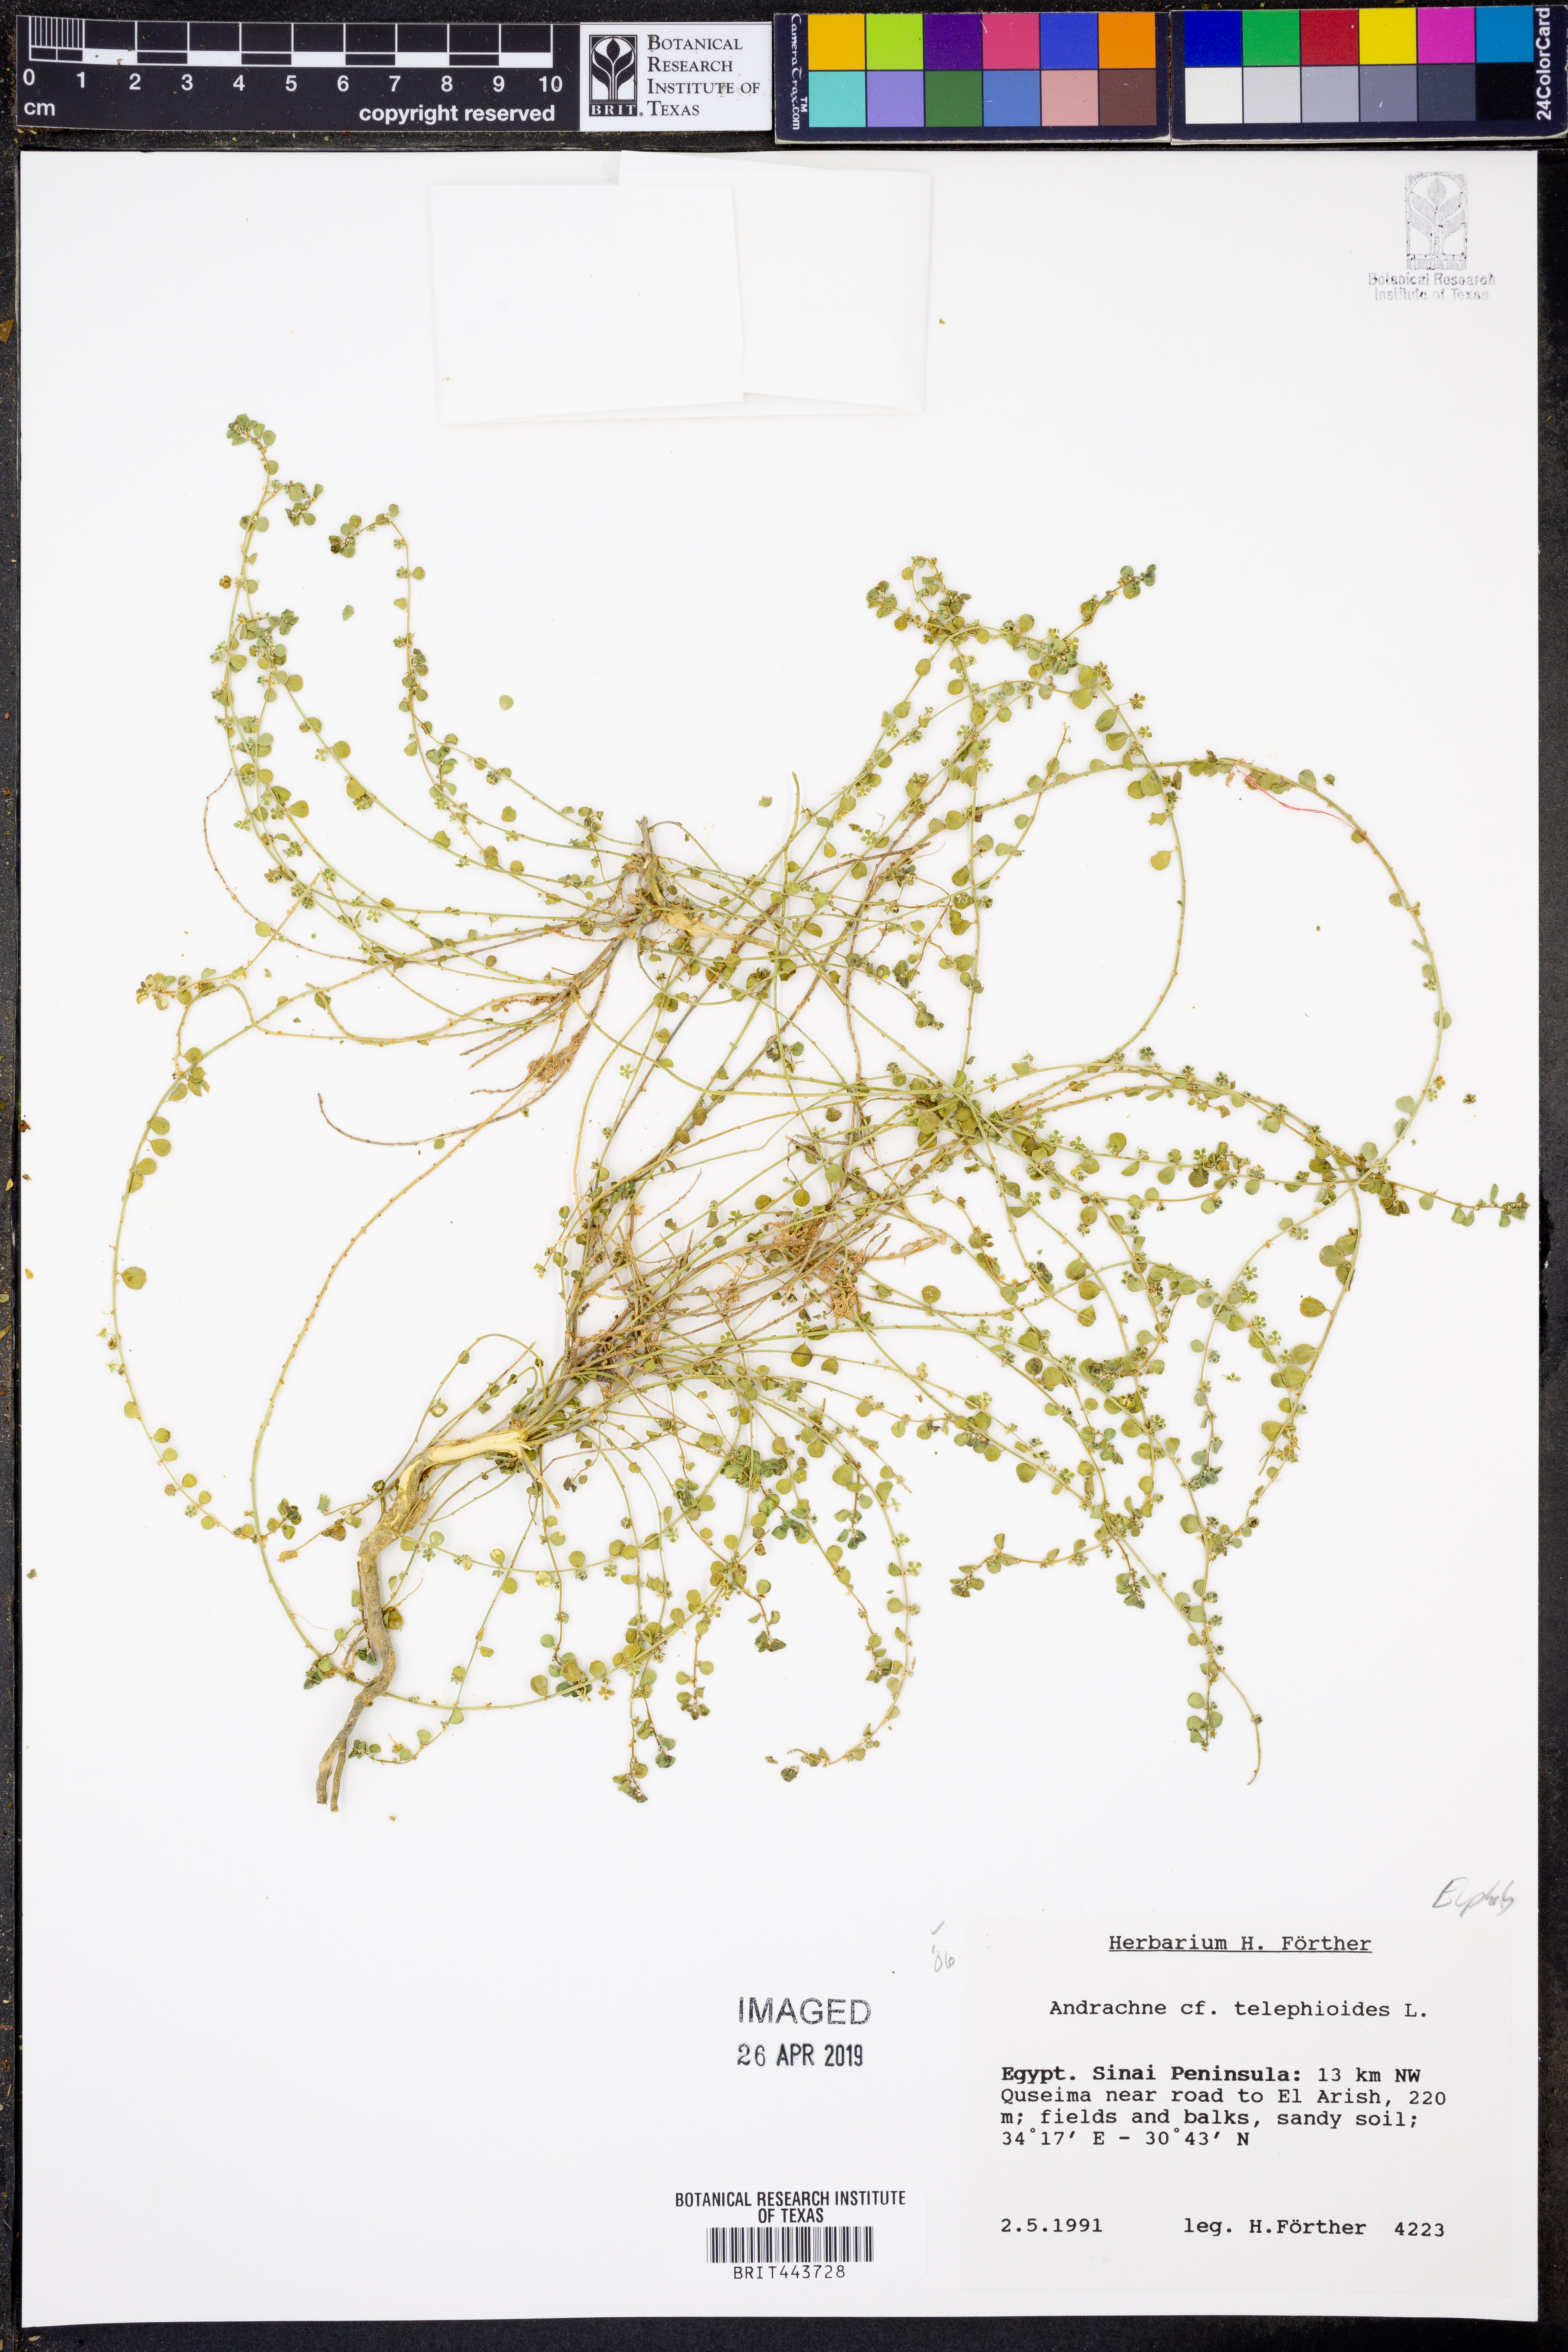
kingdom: Plantae
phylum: Tracheophyta
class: Magnoliopsida
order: Malpighiales
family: Phyllanthaceae
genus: Andrachne
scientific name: Andrachne telephioides
